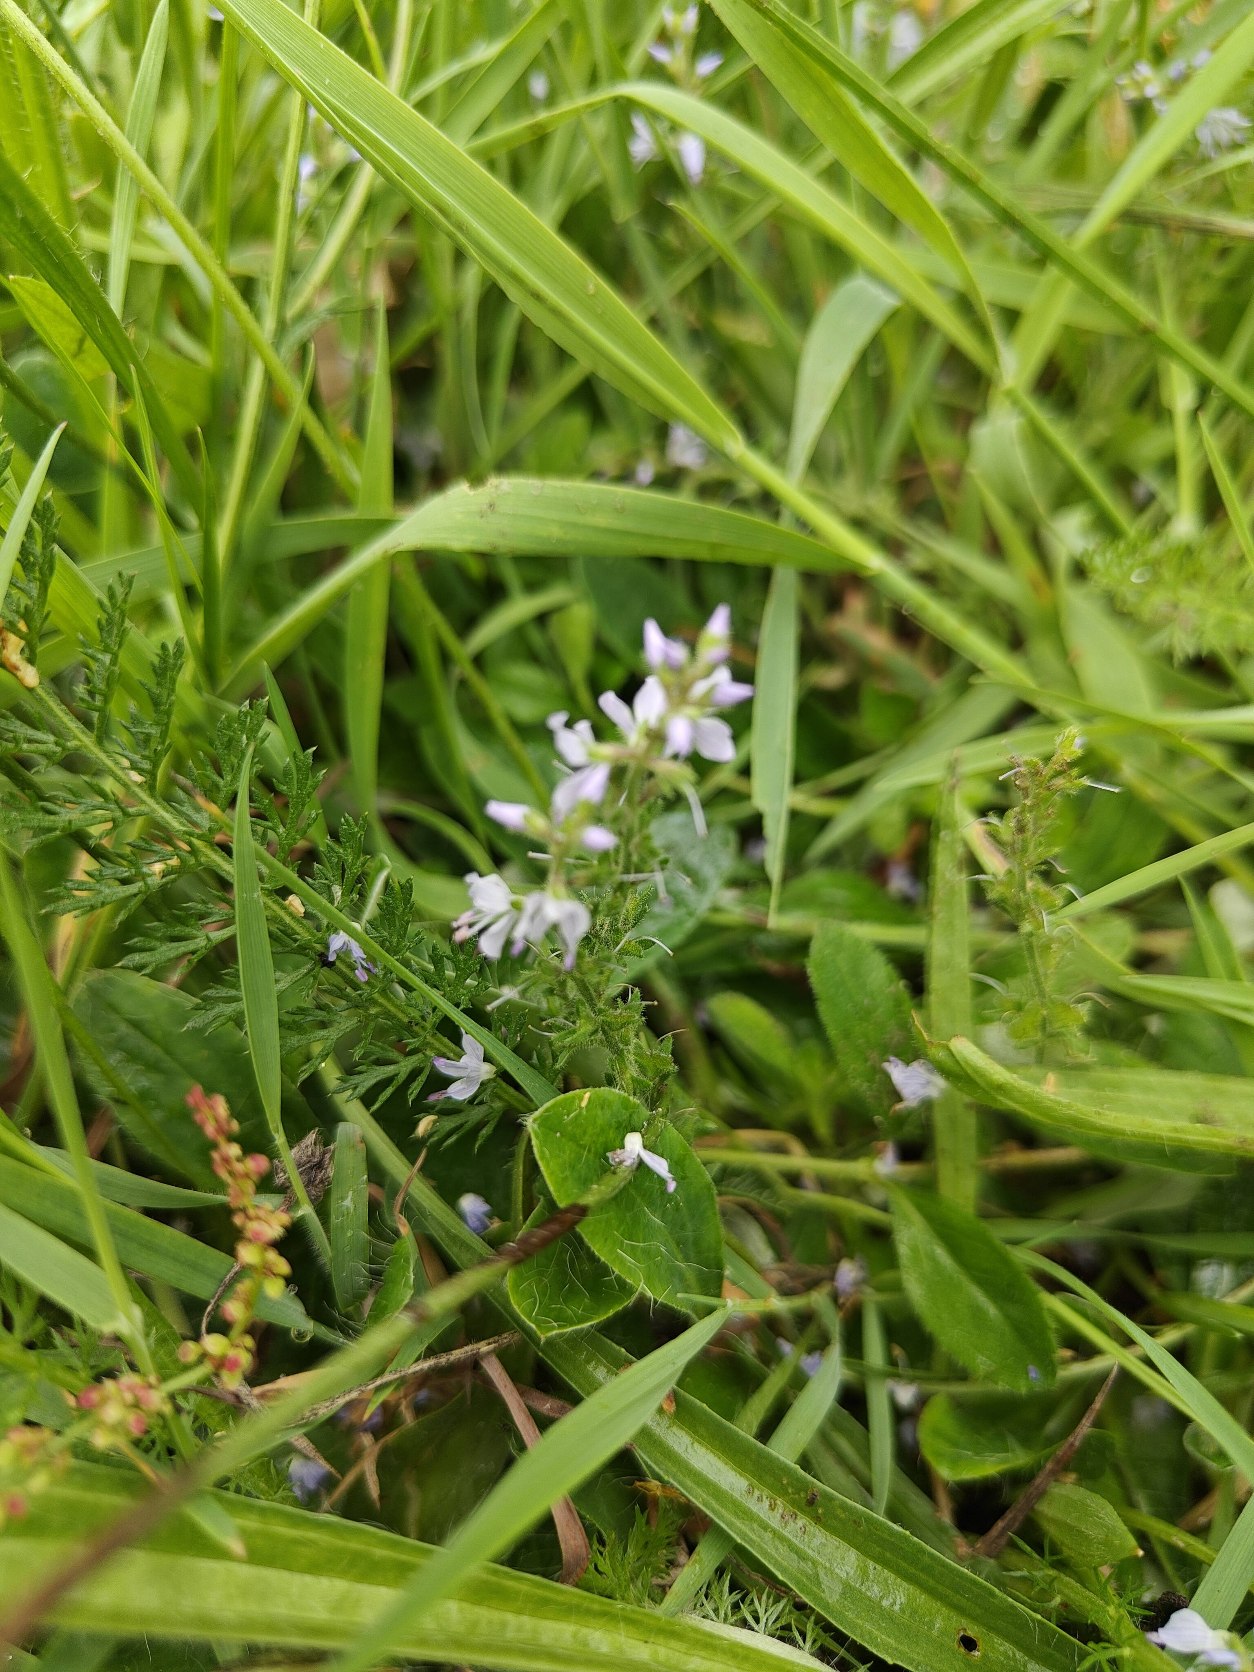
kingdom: Plantae
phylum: Tracheophyta
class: Magnoliopsida
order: Lamiales
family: Plantaginaceae
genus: Veronica
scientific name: Veronica officinalis
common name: Læge-ærenpris
